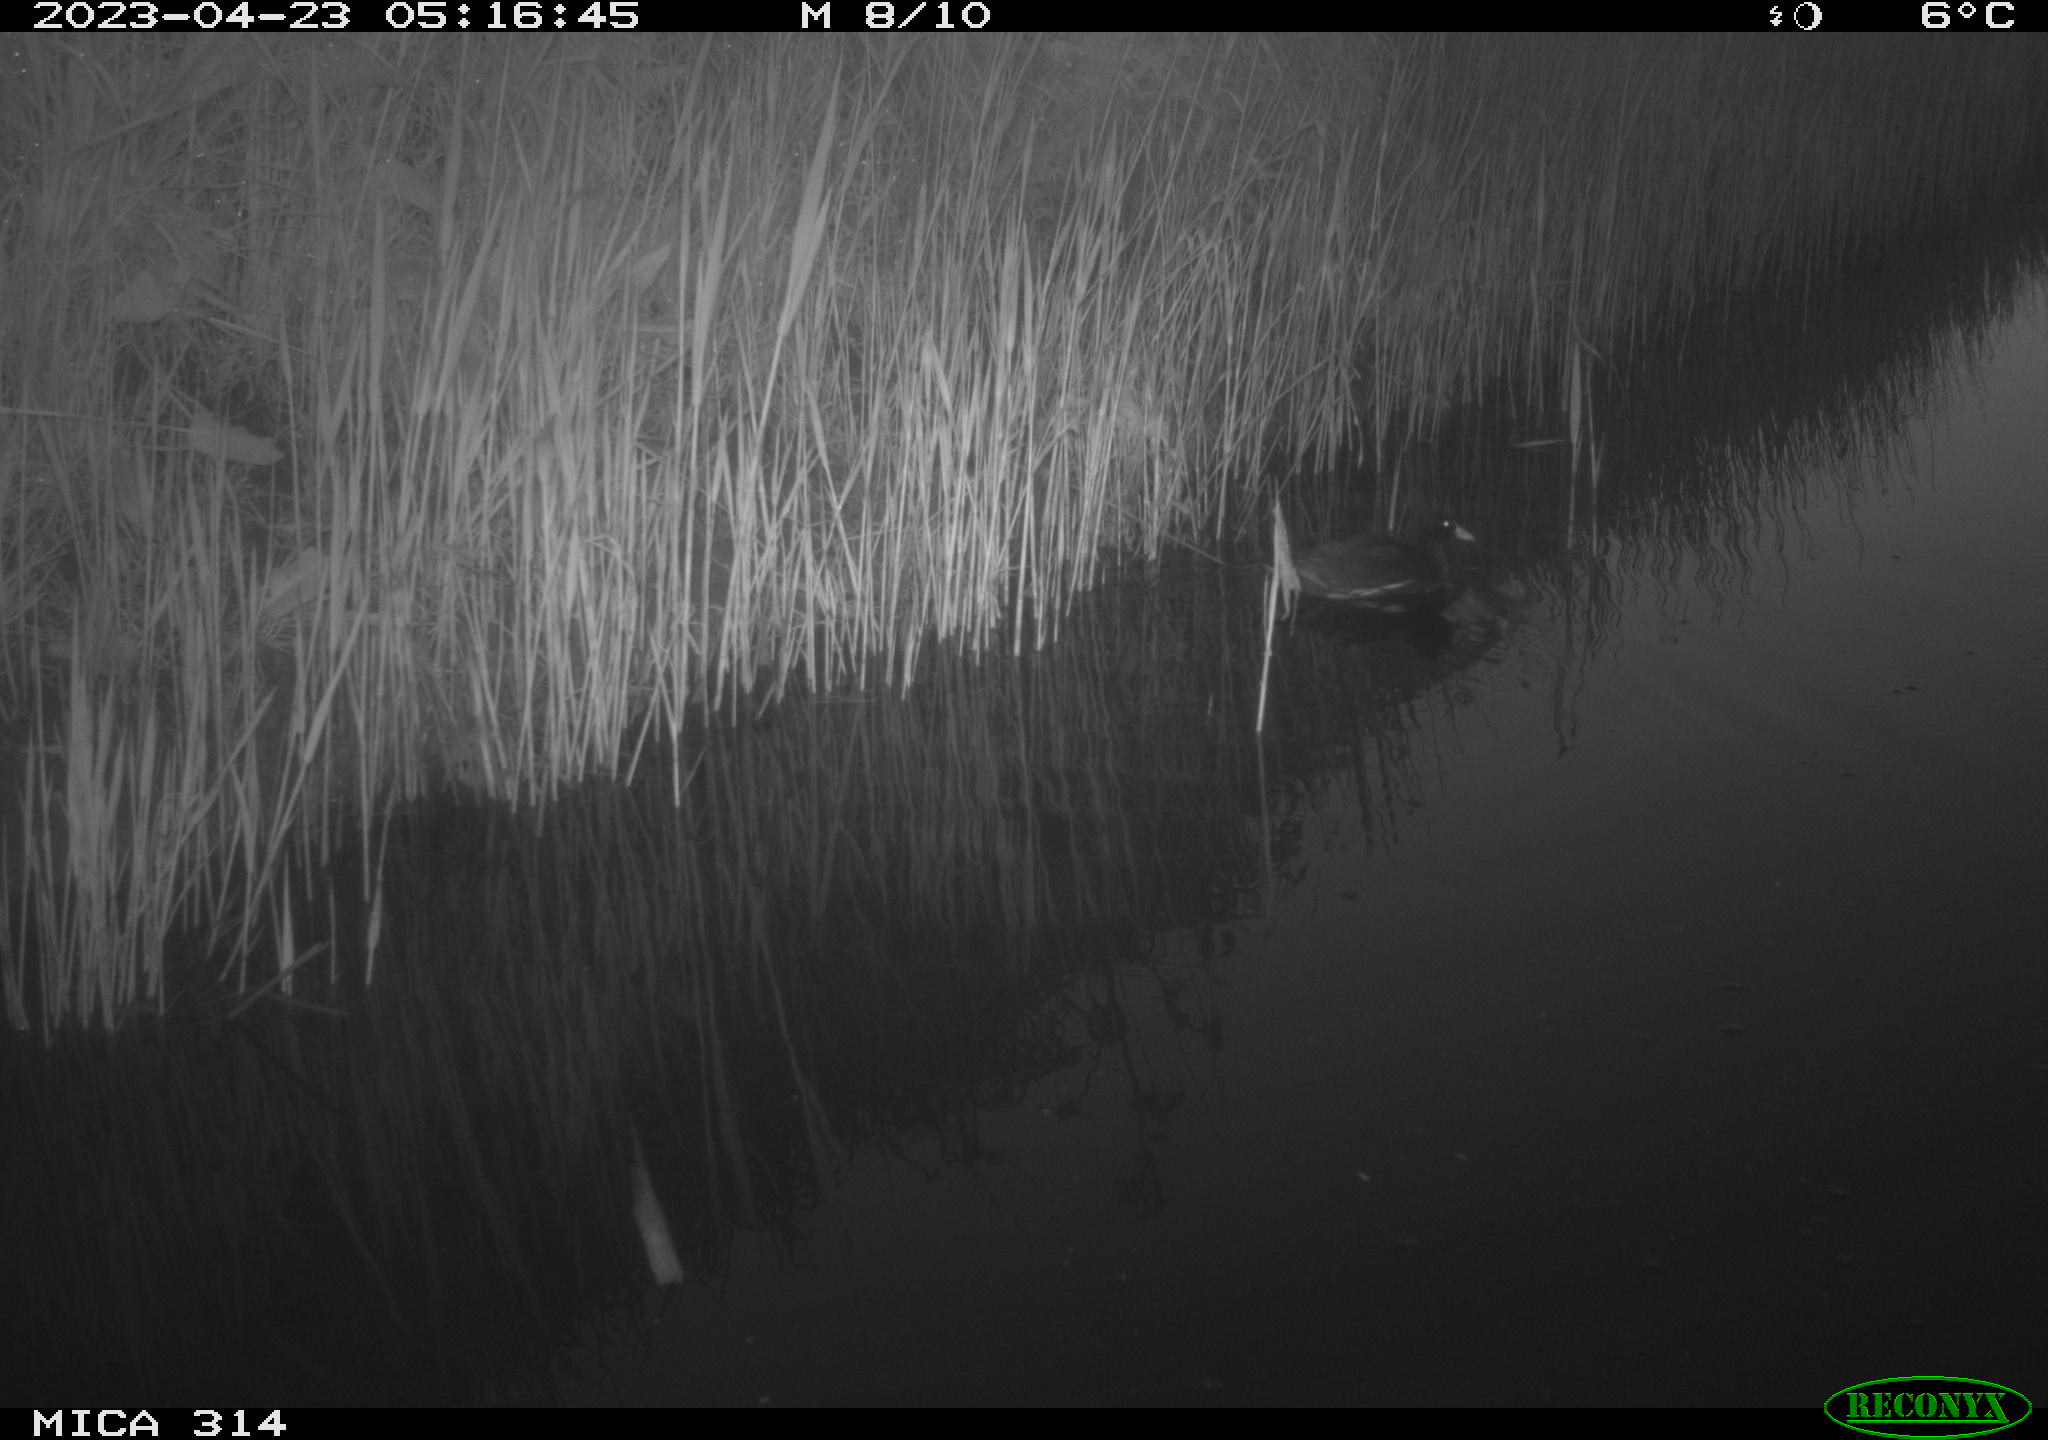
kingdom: Animalia
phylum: Chordata
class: Aves
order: Gruiformes
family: Rallidae
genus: Gallinula
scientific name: Gallinula chloropus
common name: Common moorhen
